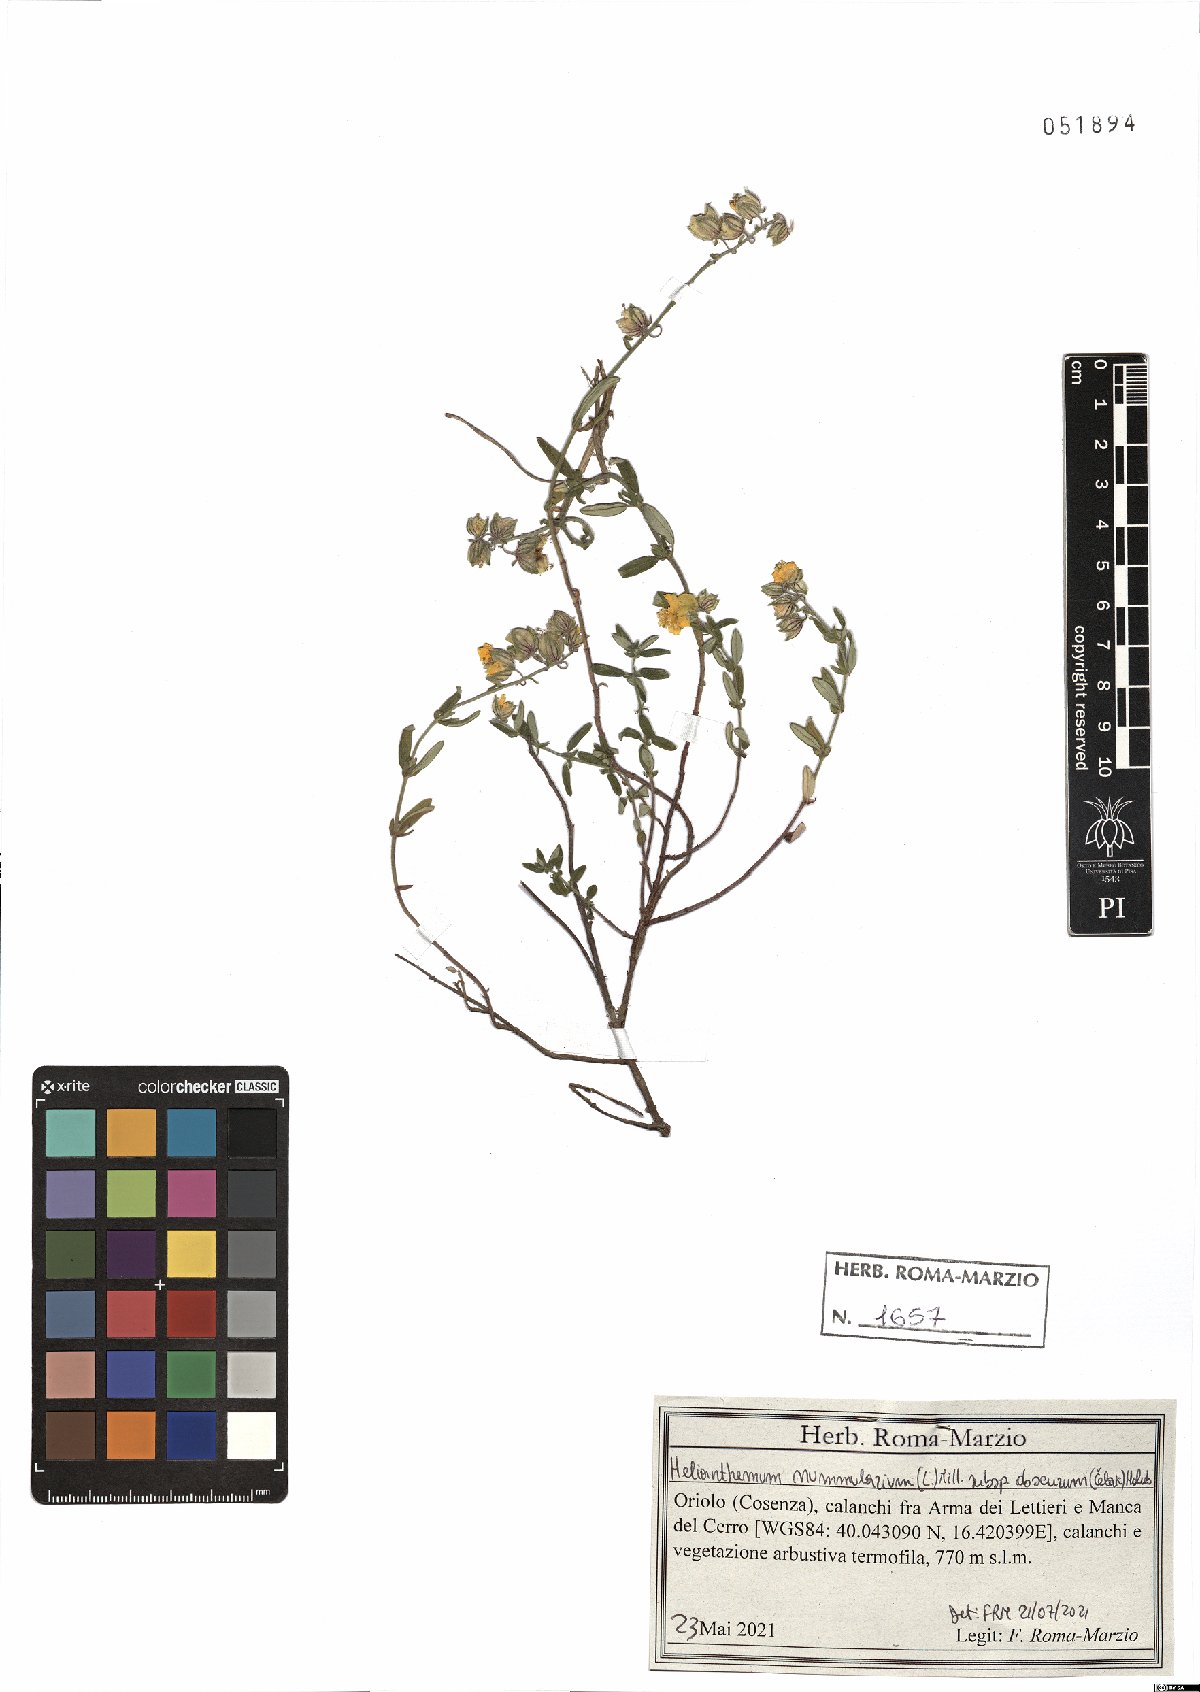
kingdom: Plantae
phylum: Tracheophyta
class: Magnoliopsida
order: Malvales
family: Cistaceae
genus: Helianthemum
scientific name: Helianthemum nummularium
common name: Common rock-rose
